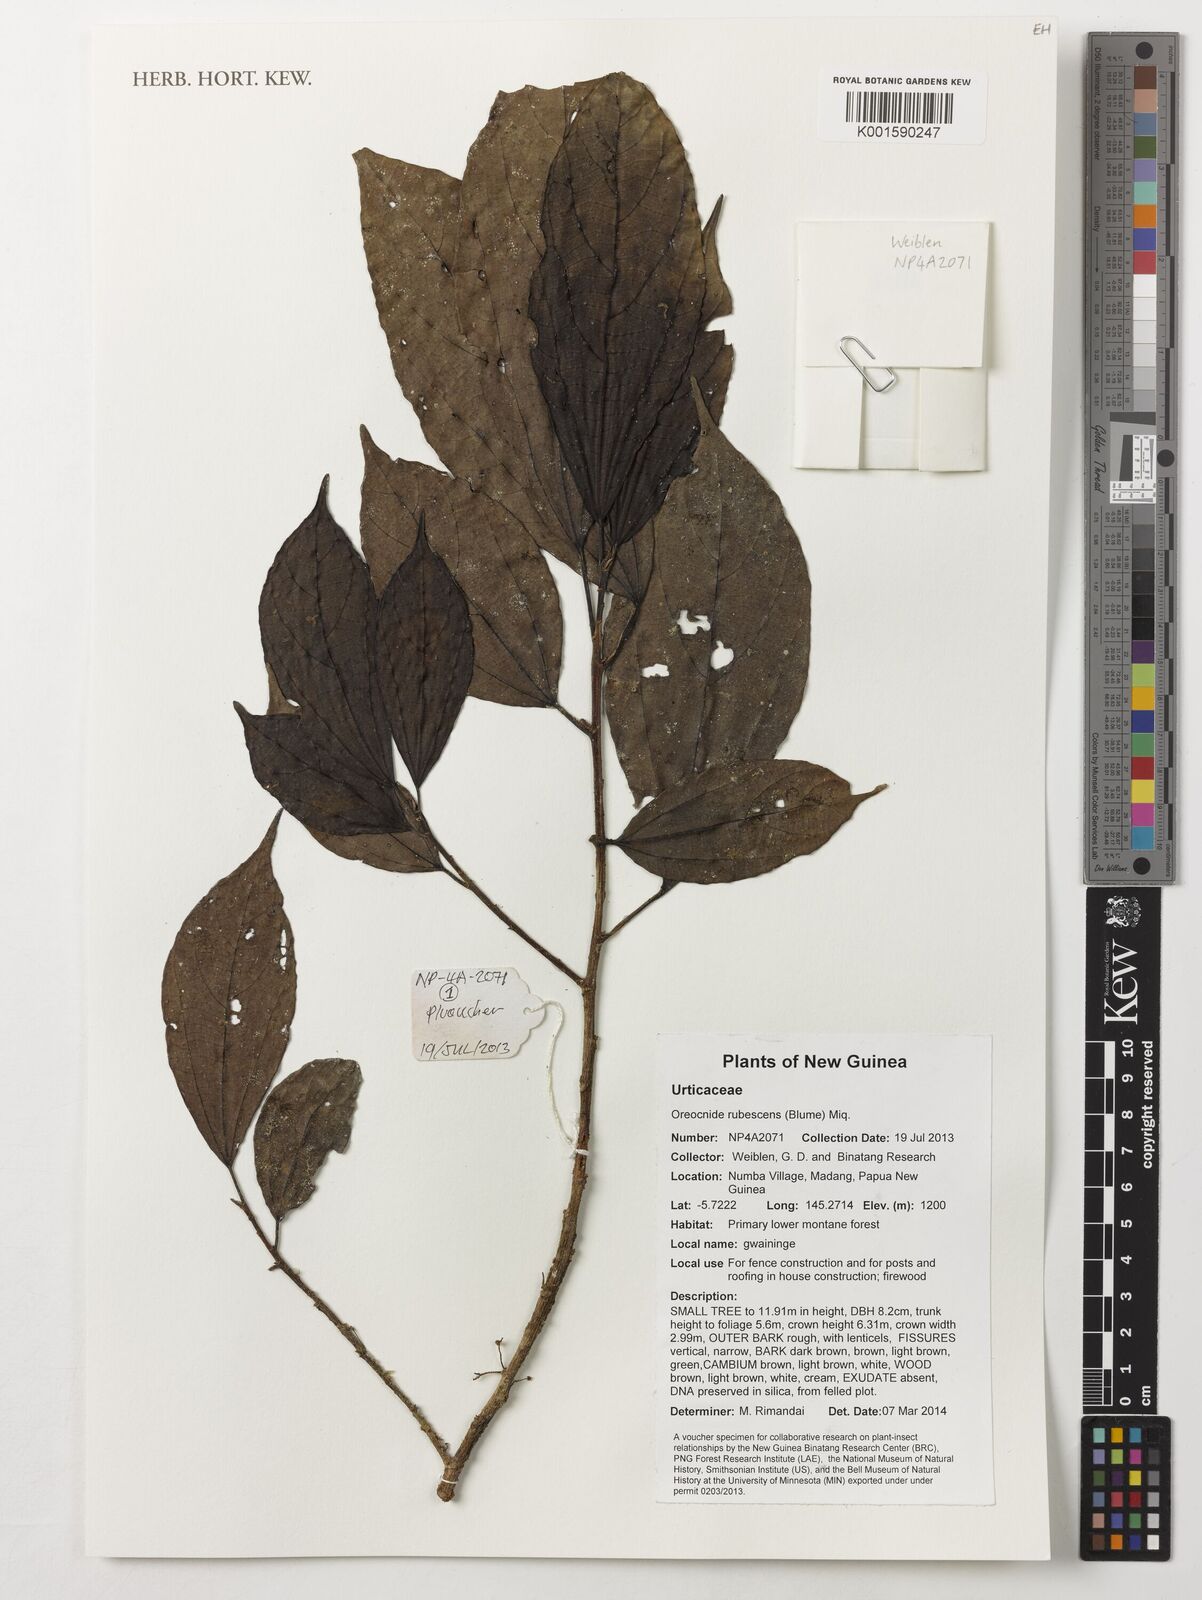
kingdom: Plantae
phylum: Tracheophyta
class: Magnoliopsida
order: Rosales
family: Urticaceae
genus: Oreocnide
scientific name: Oreocnide rubescens
